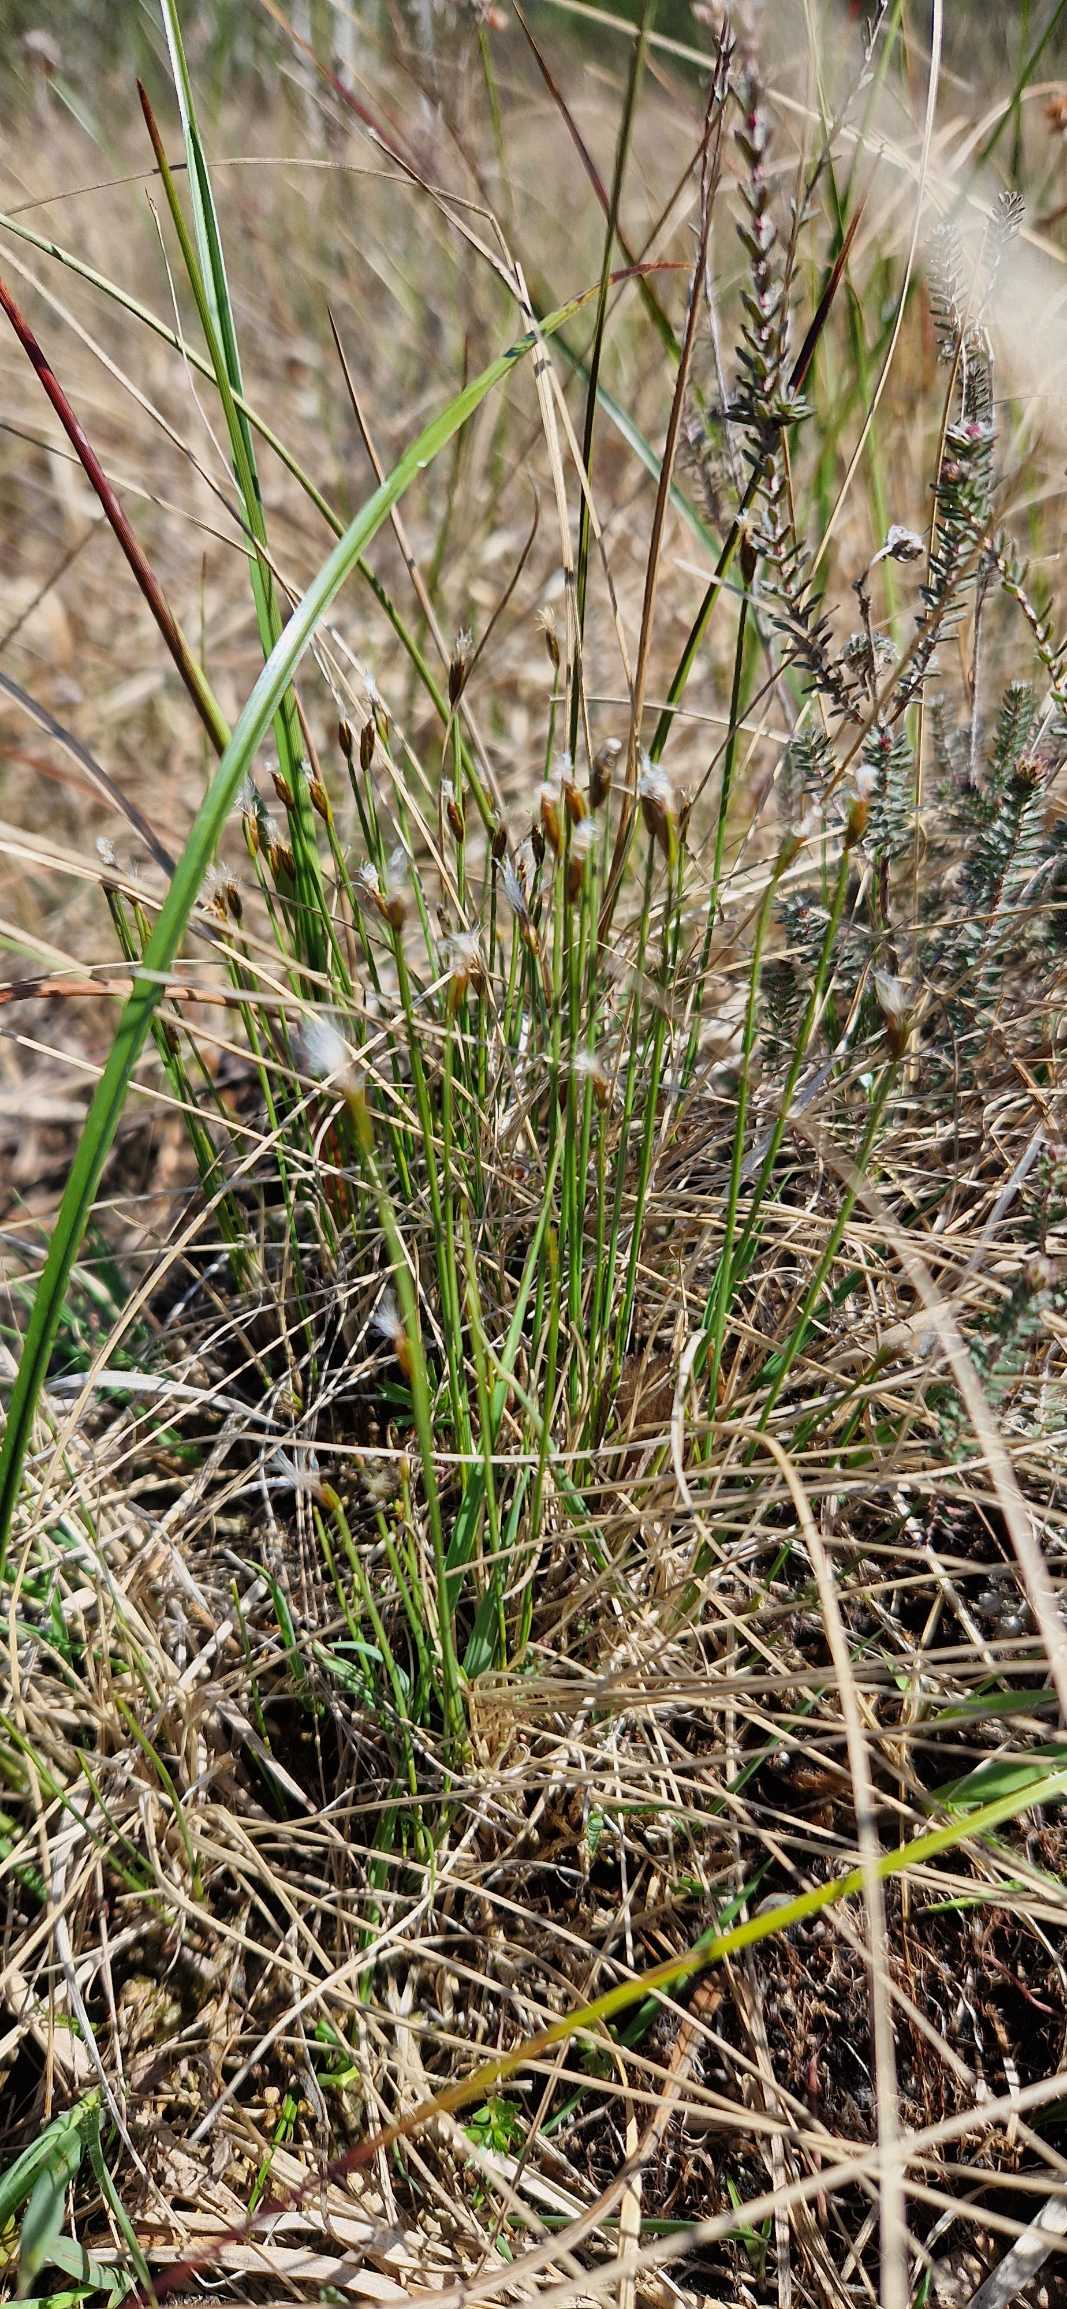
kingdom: Plantae
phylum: Tracheophyta
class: Liliopsida
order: Poales
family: Cyperaceae
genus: Trichophorum
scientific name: Trichophorum alpinum
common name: Liden kæruld
